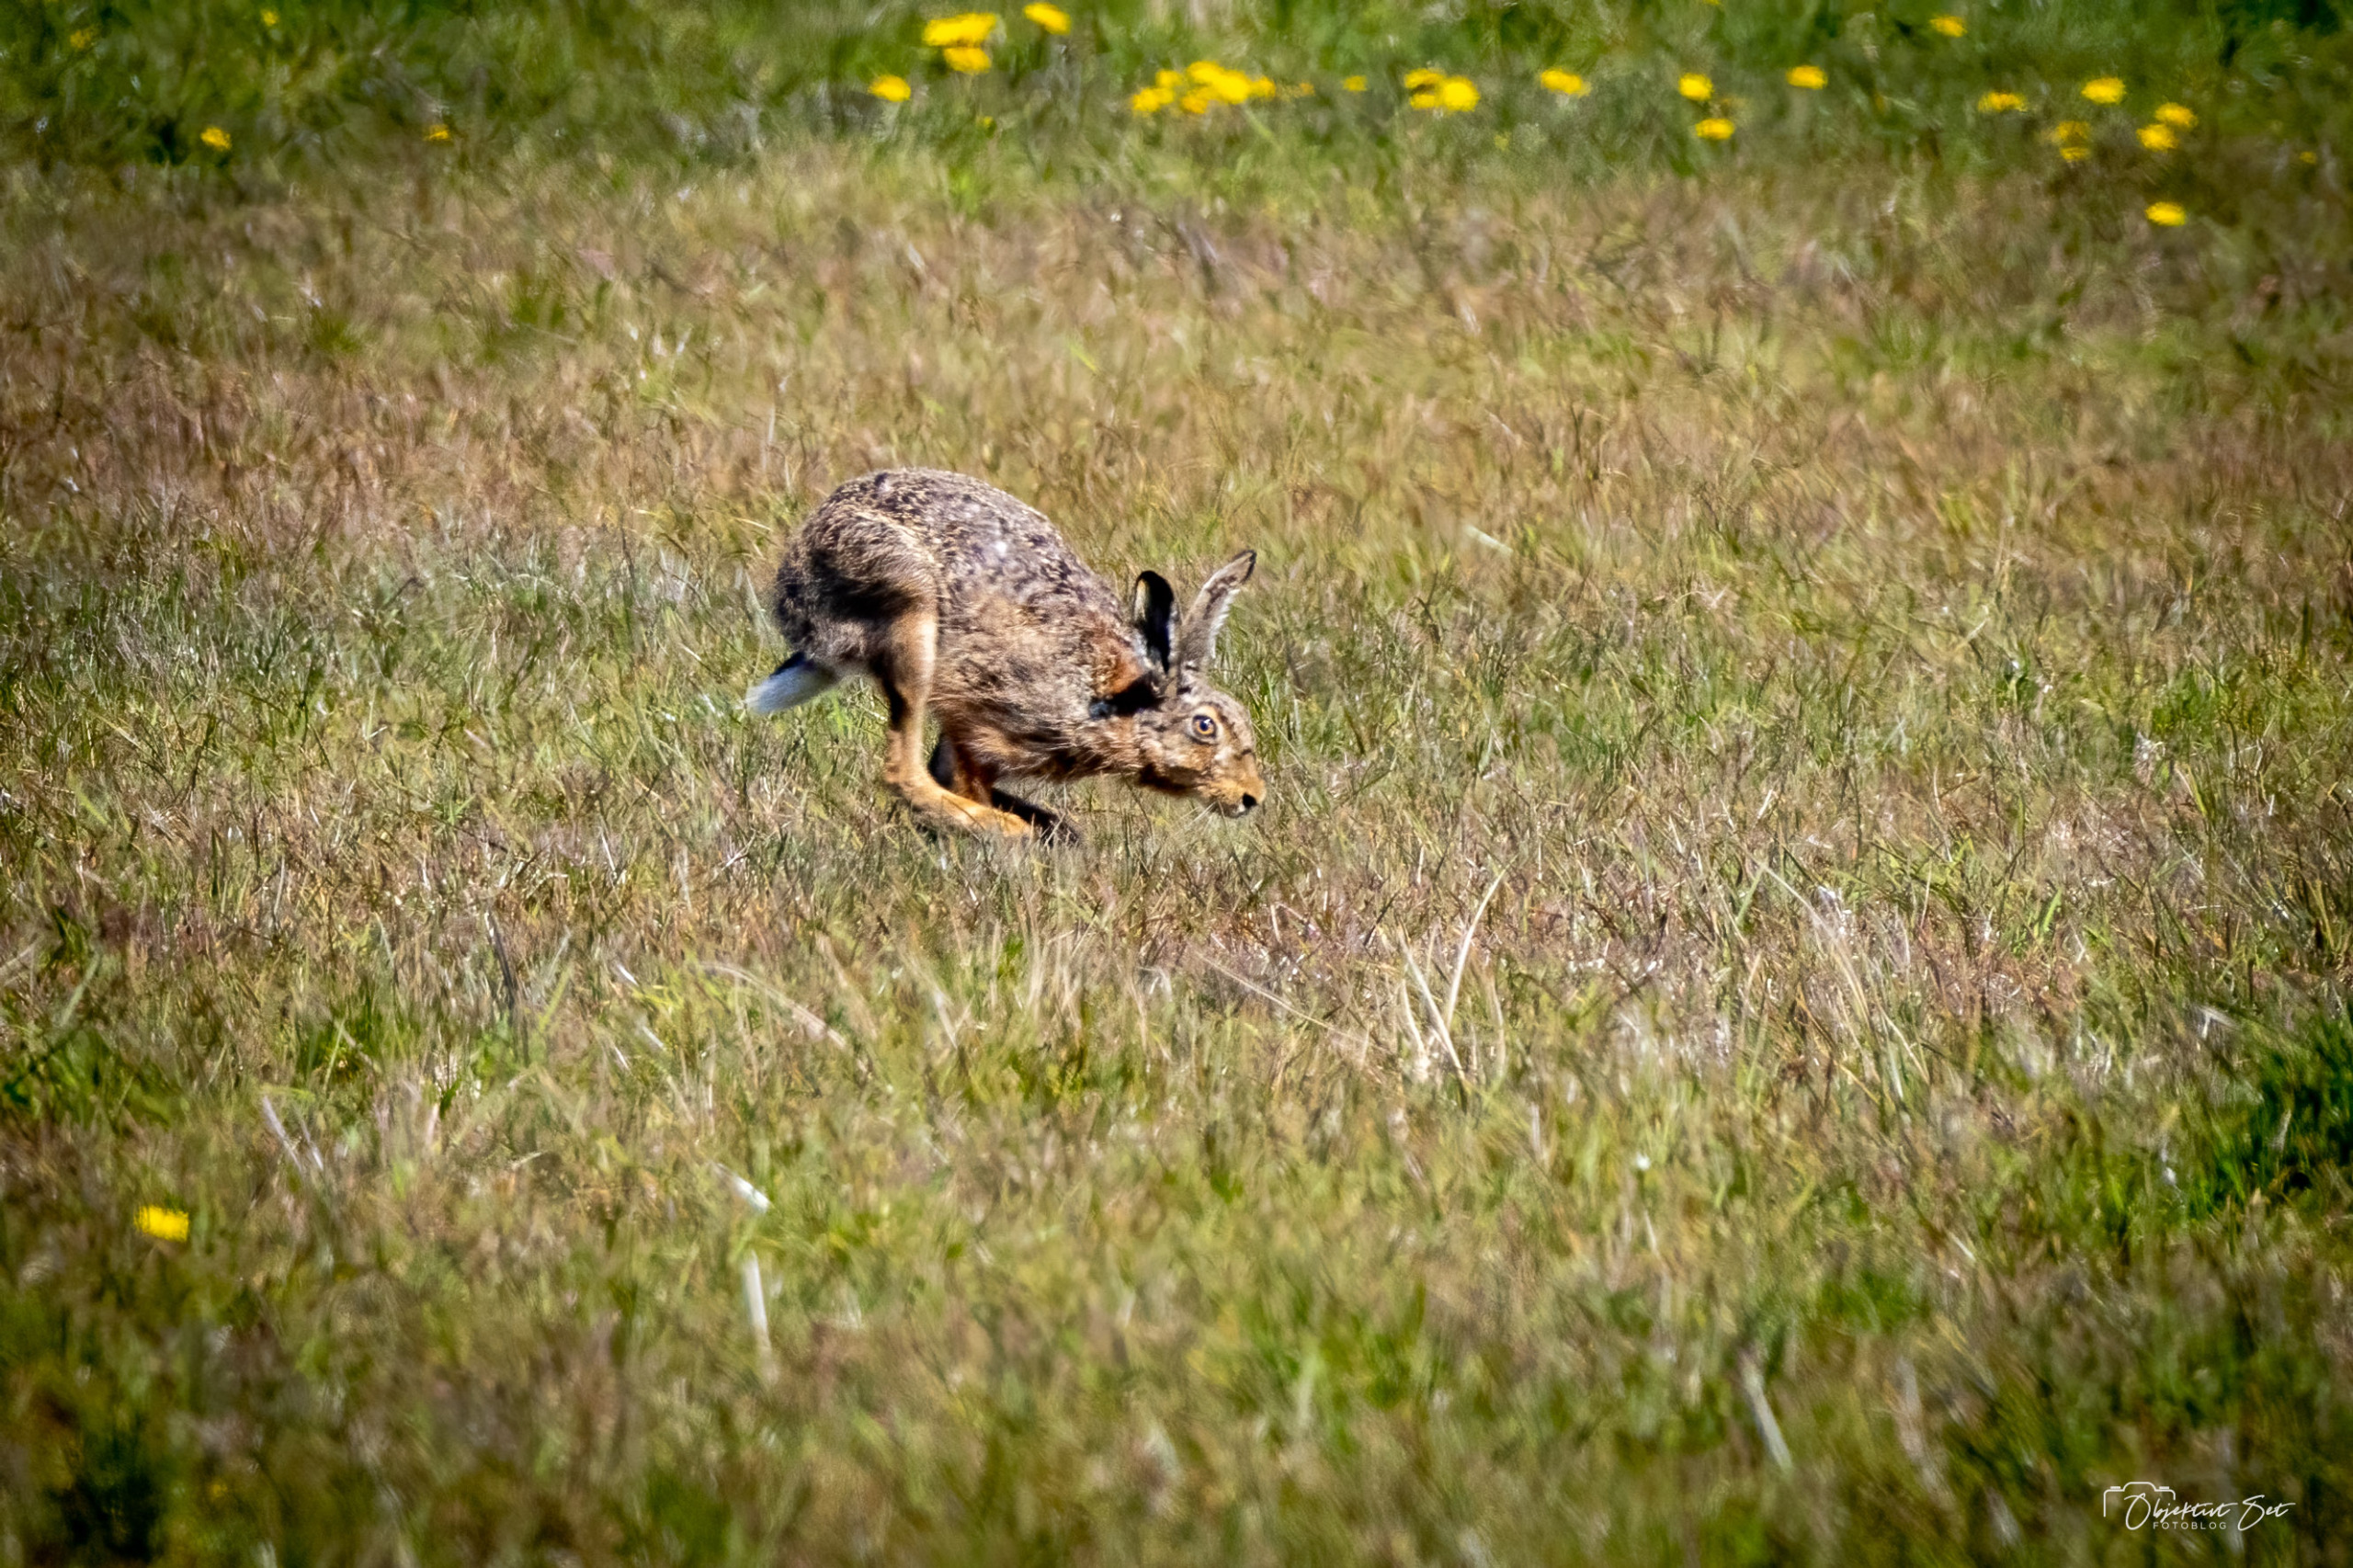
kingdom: Animalia
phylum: Chordata
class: Mammalia
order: Lagomorpha
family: Leporidae
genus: Lepus
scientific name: Lepus europaeus
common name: Hare
